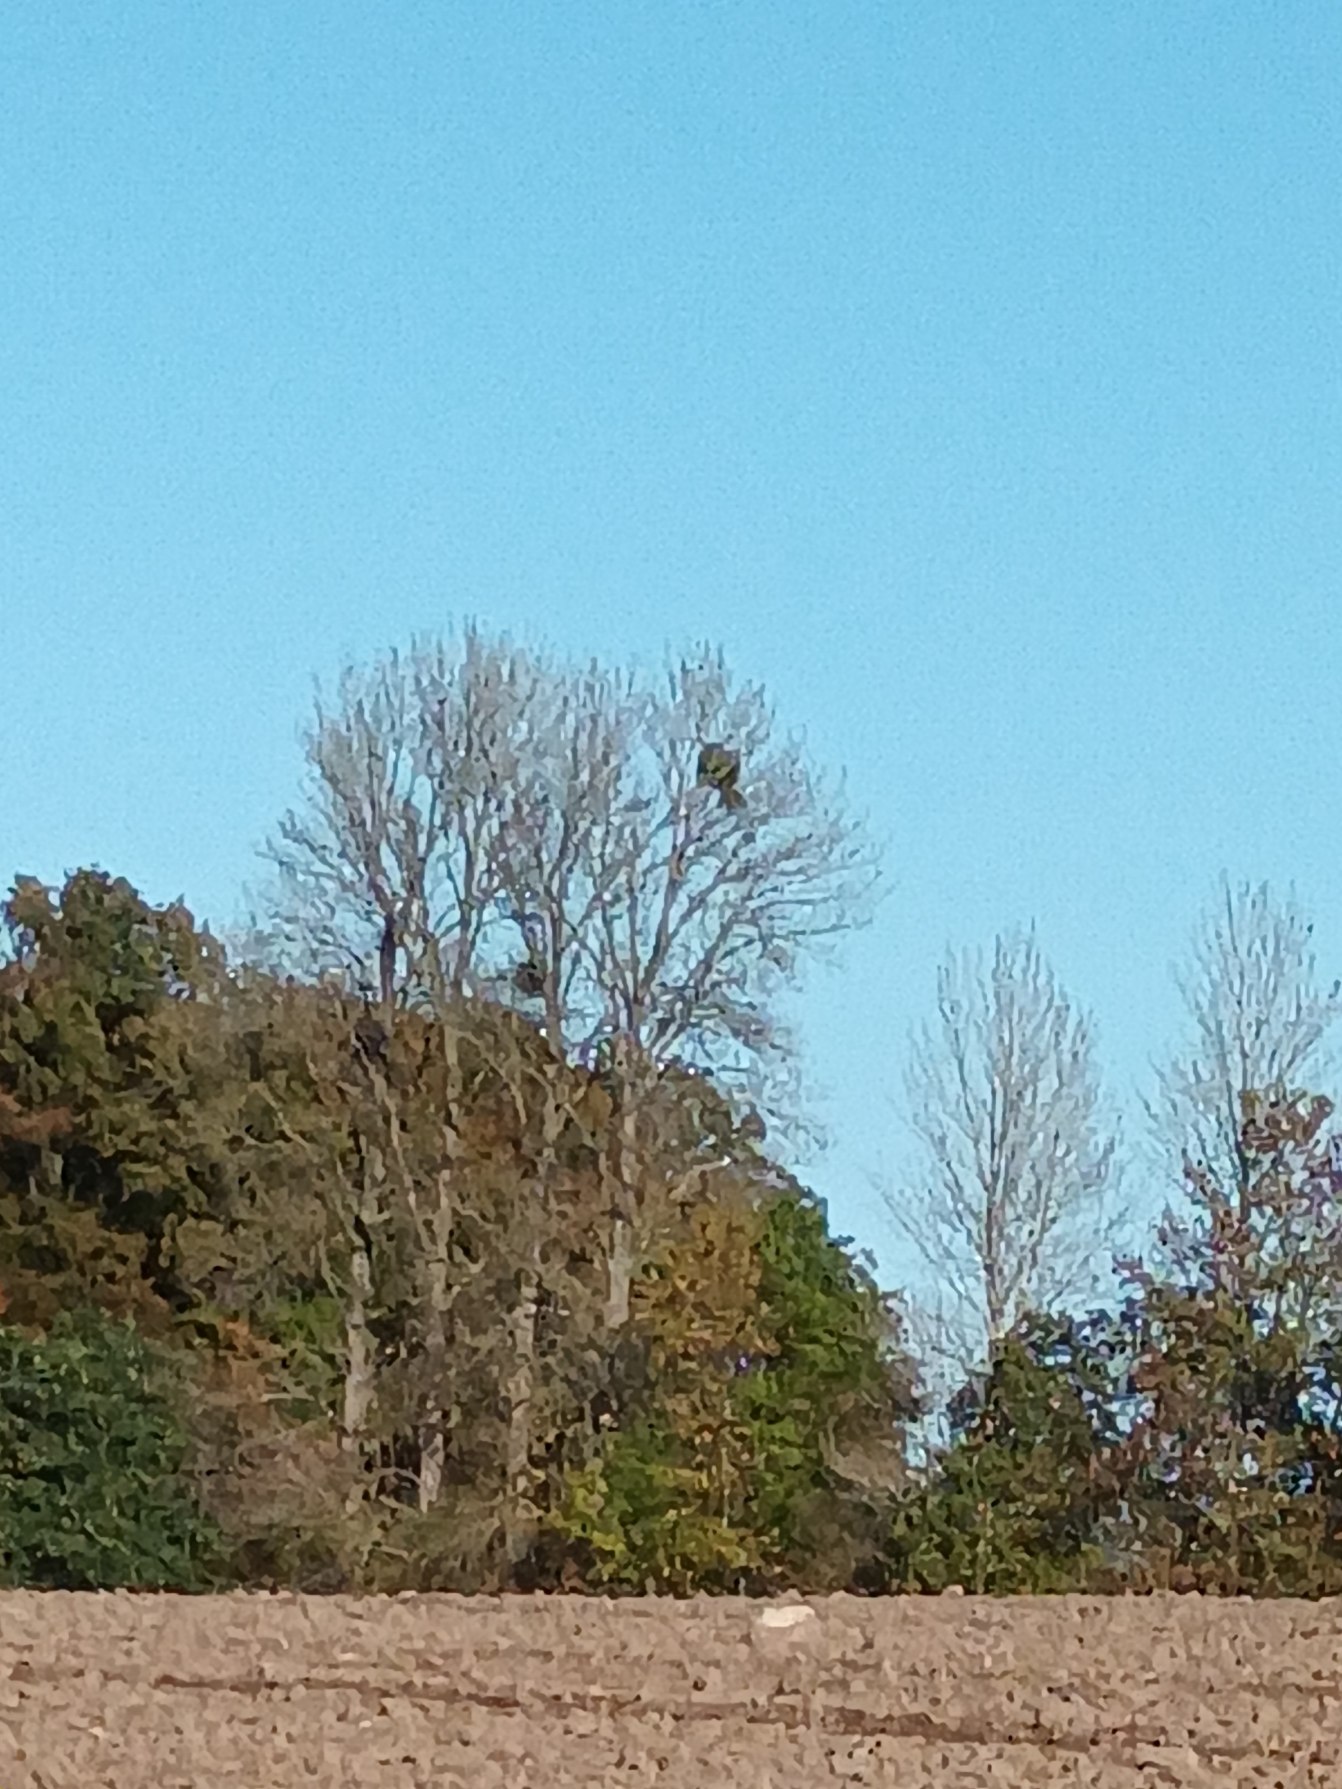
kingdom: Plantae
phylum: Tracheophyta
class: Magnoliopsida
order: Santalales
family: Viscaceae
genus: Viscum
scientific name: Viscum album
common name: Mistelten
